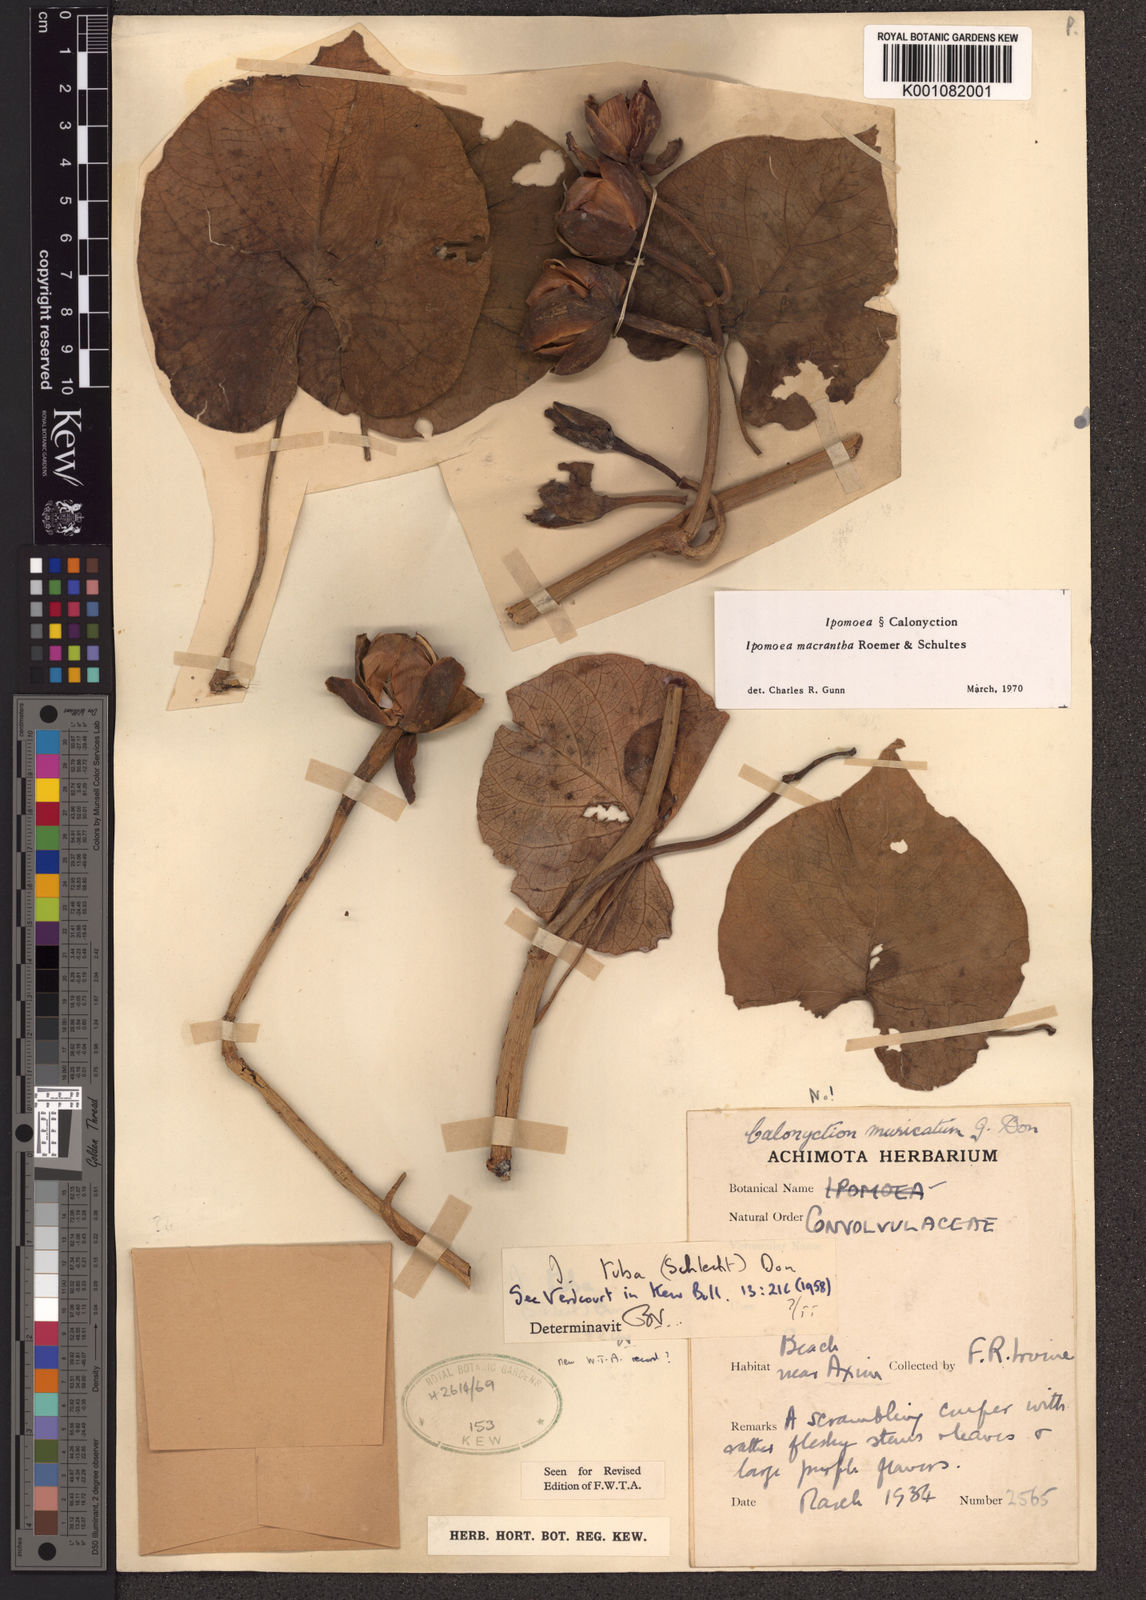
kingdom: Plantae
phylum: Tracheophyta
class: Magnoliopsida
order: Solanales
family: Convolvulaceae
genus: Ipomoea
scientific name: Ipomoea violacea
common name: Beach moonflower
